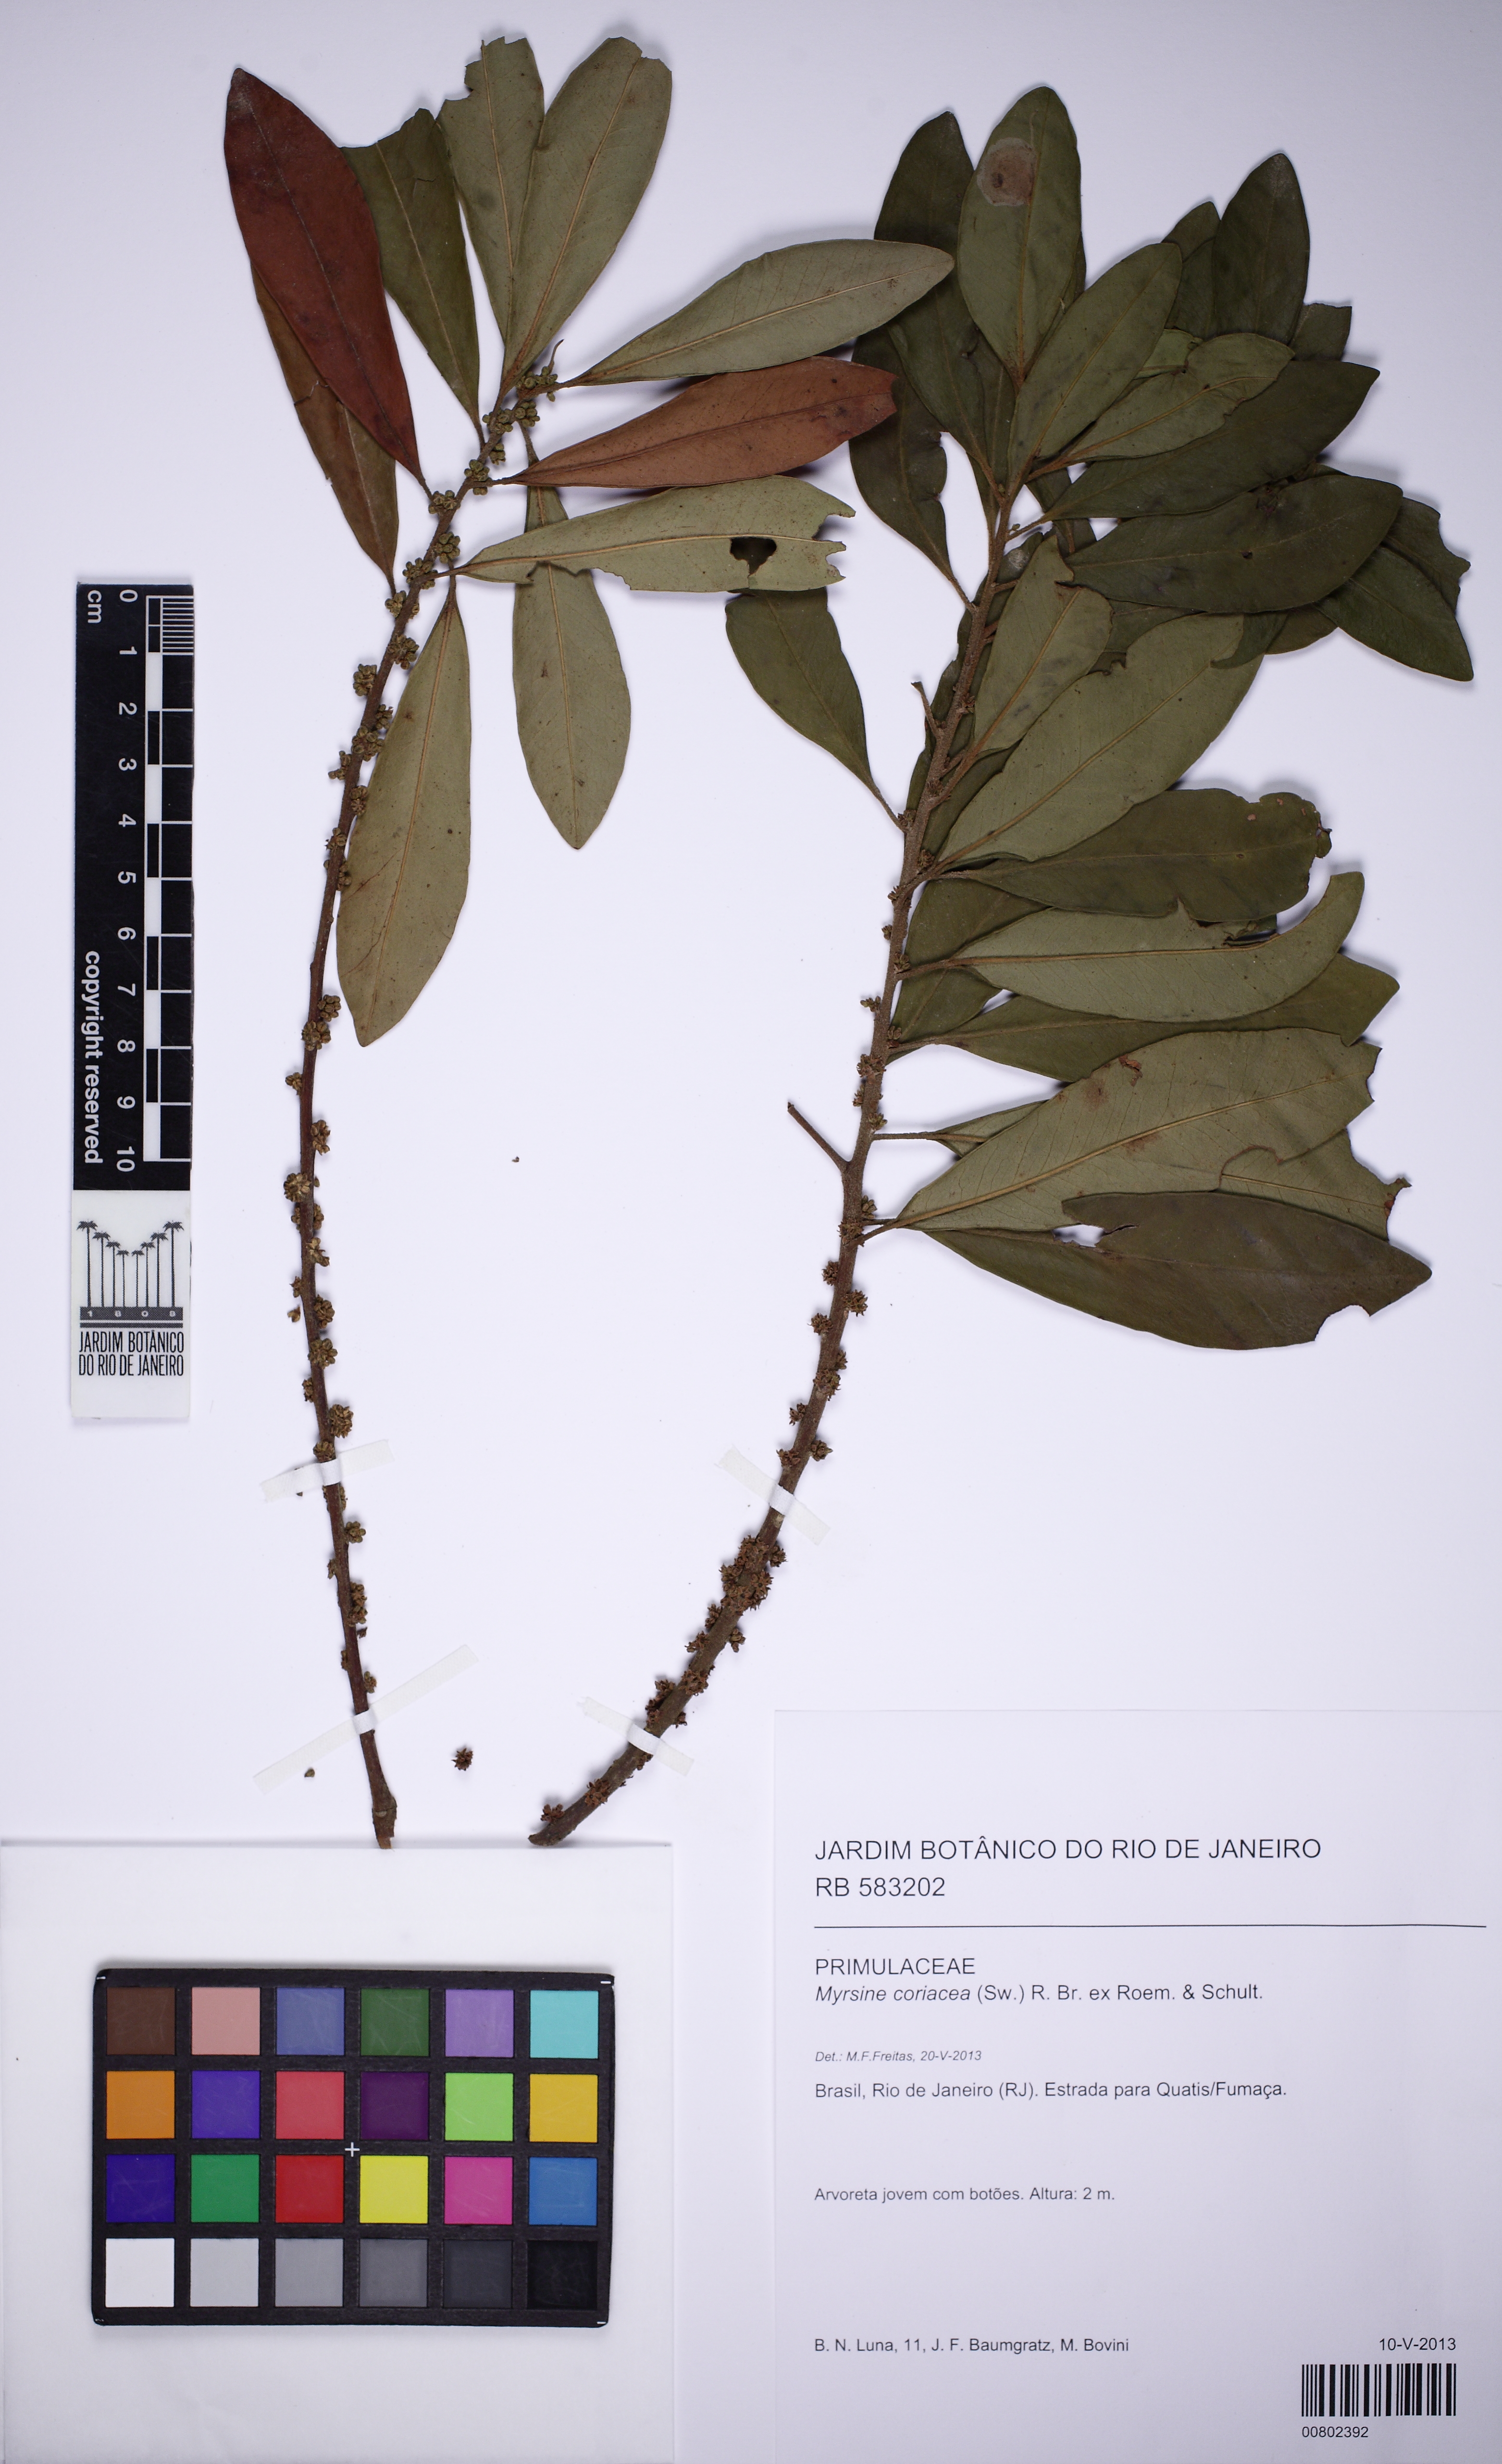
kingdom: Plantae
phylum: Tracheophyta
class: Magnoliopsida
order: Ericales
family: Primulaceae
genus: Myrsine
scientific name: Myrsine coriacea
